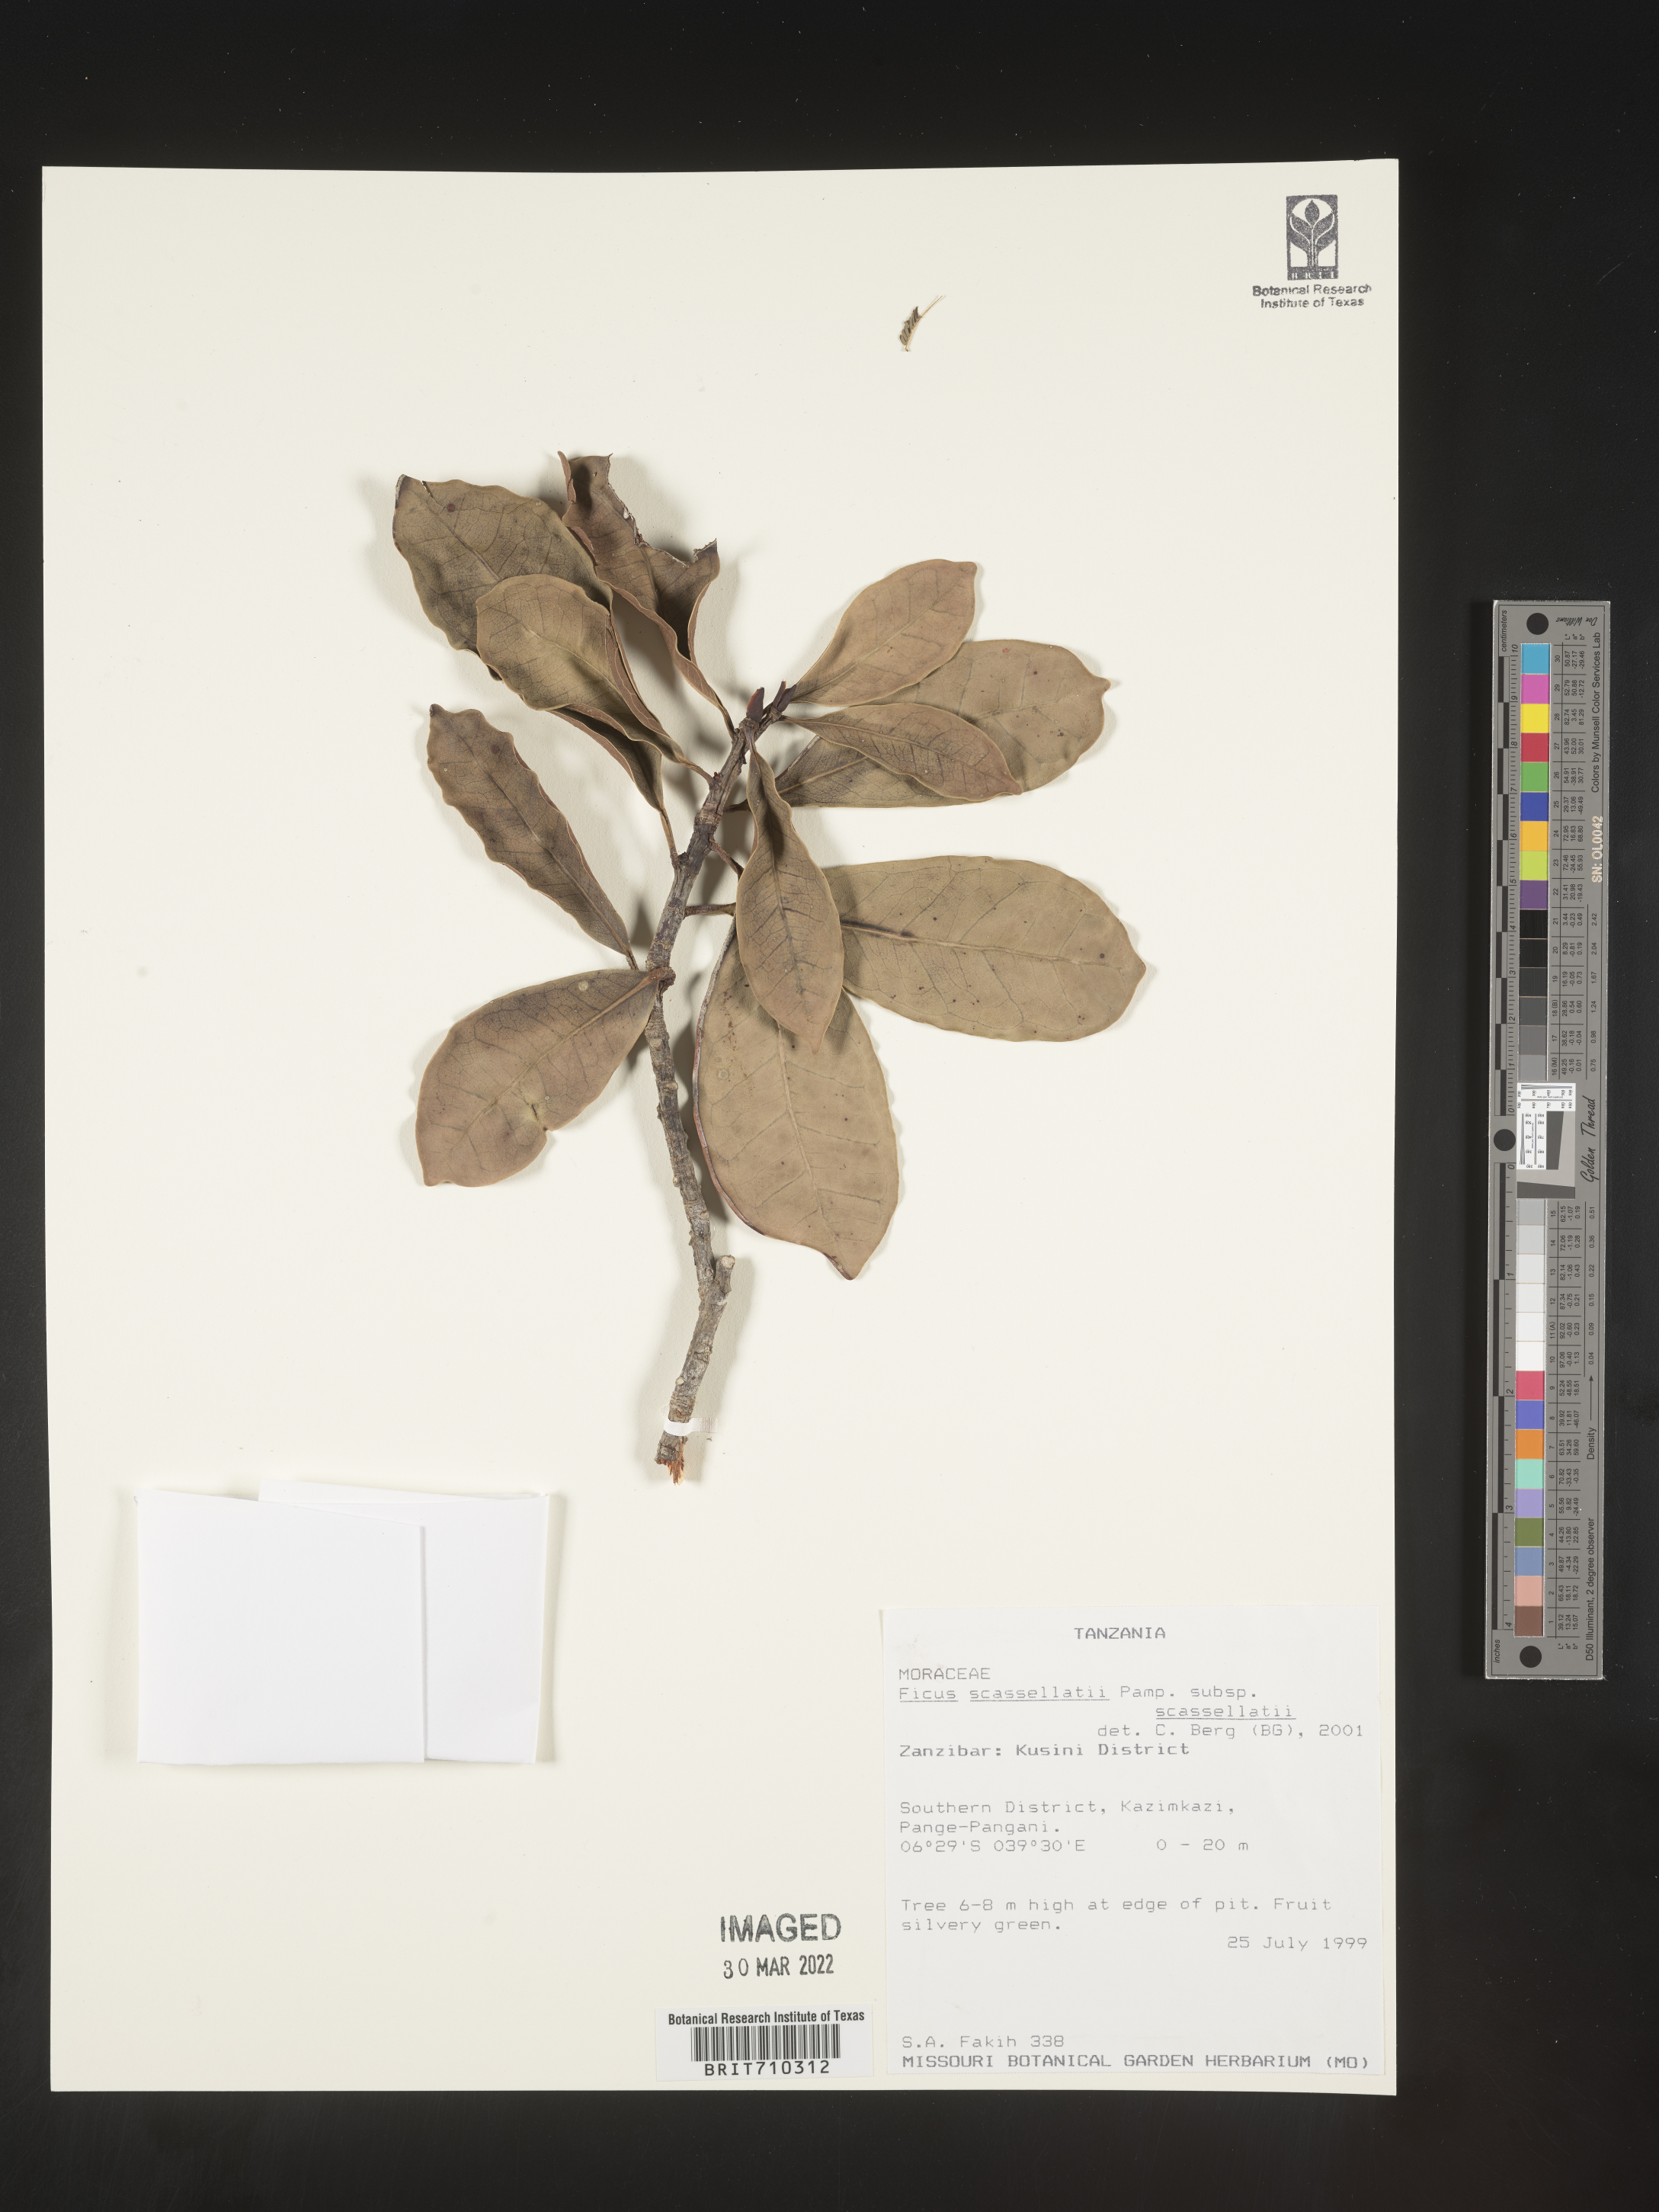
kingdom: Plantae
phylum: Tracheophyta
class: Magnoliopsida
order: Rosales
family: Moraceae
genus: Ficus
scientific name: Ficus
